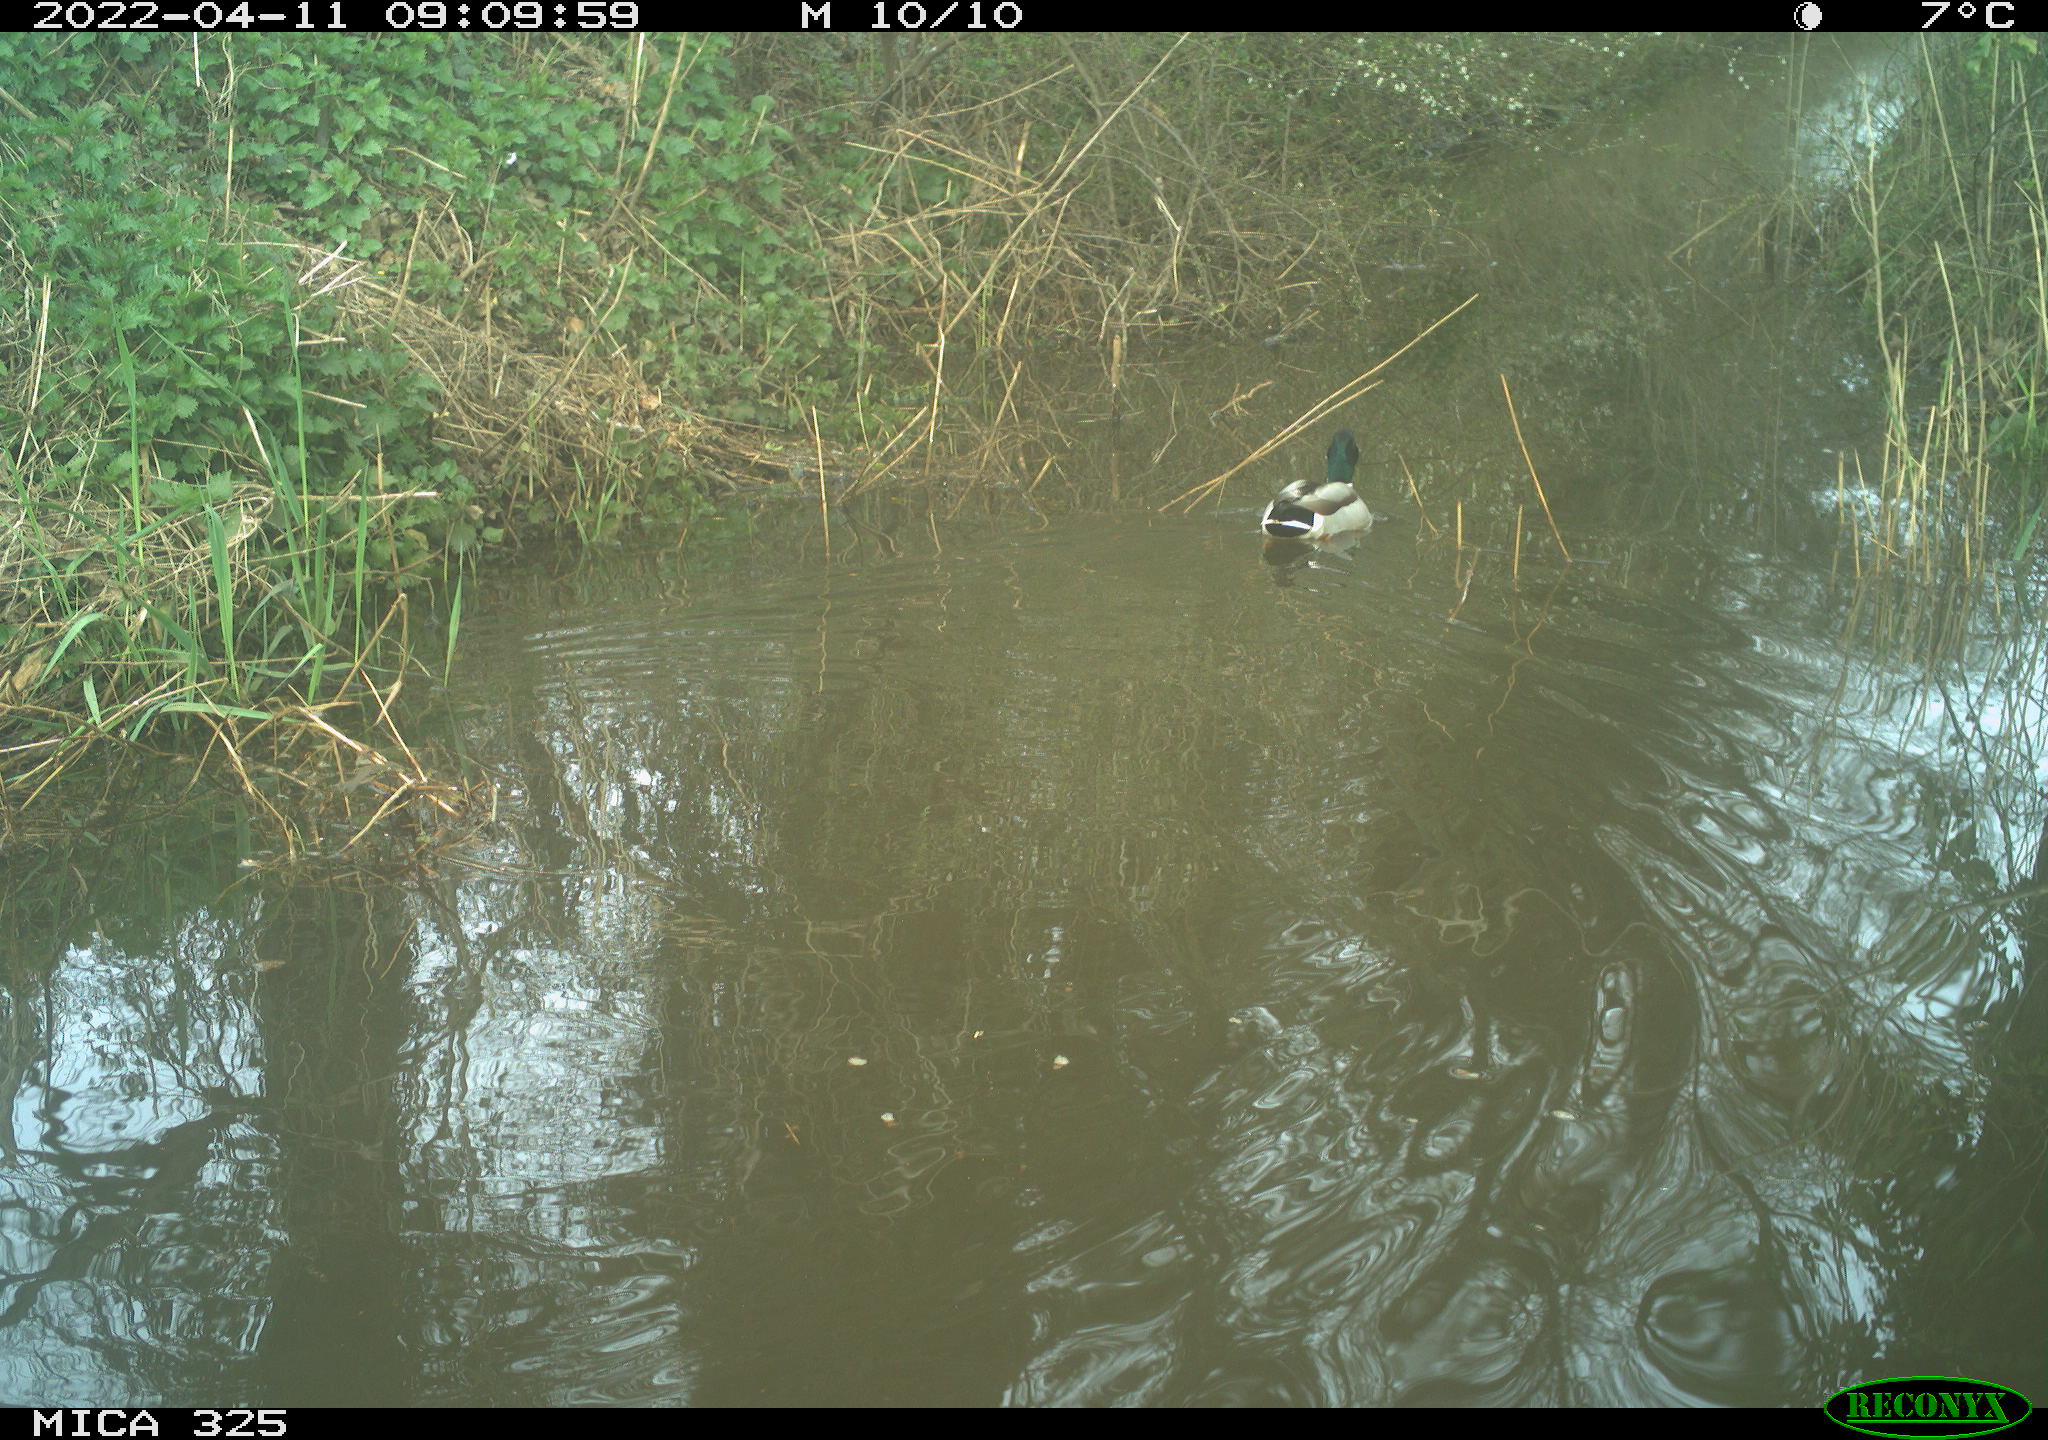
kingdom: Animalia
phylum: Chordata
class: Aves
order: Anseriformes
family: Anatidae
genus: Anas
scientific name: Anas platyrhynchos
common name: Mallard
